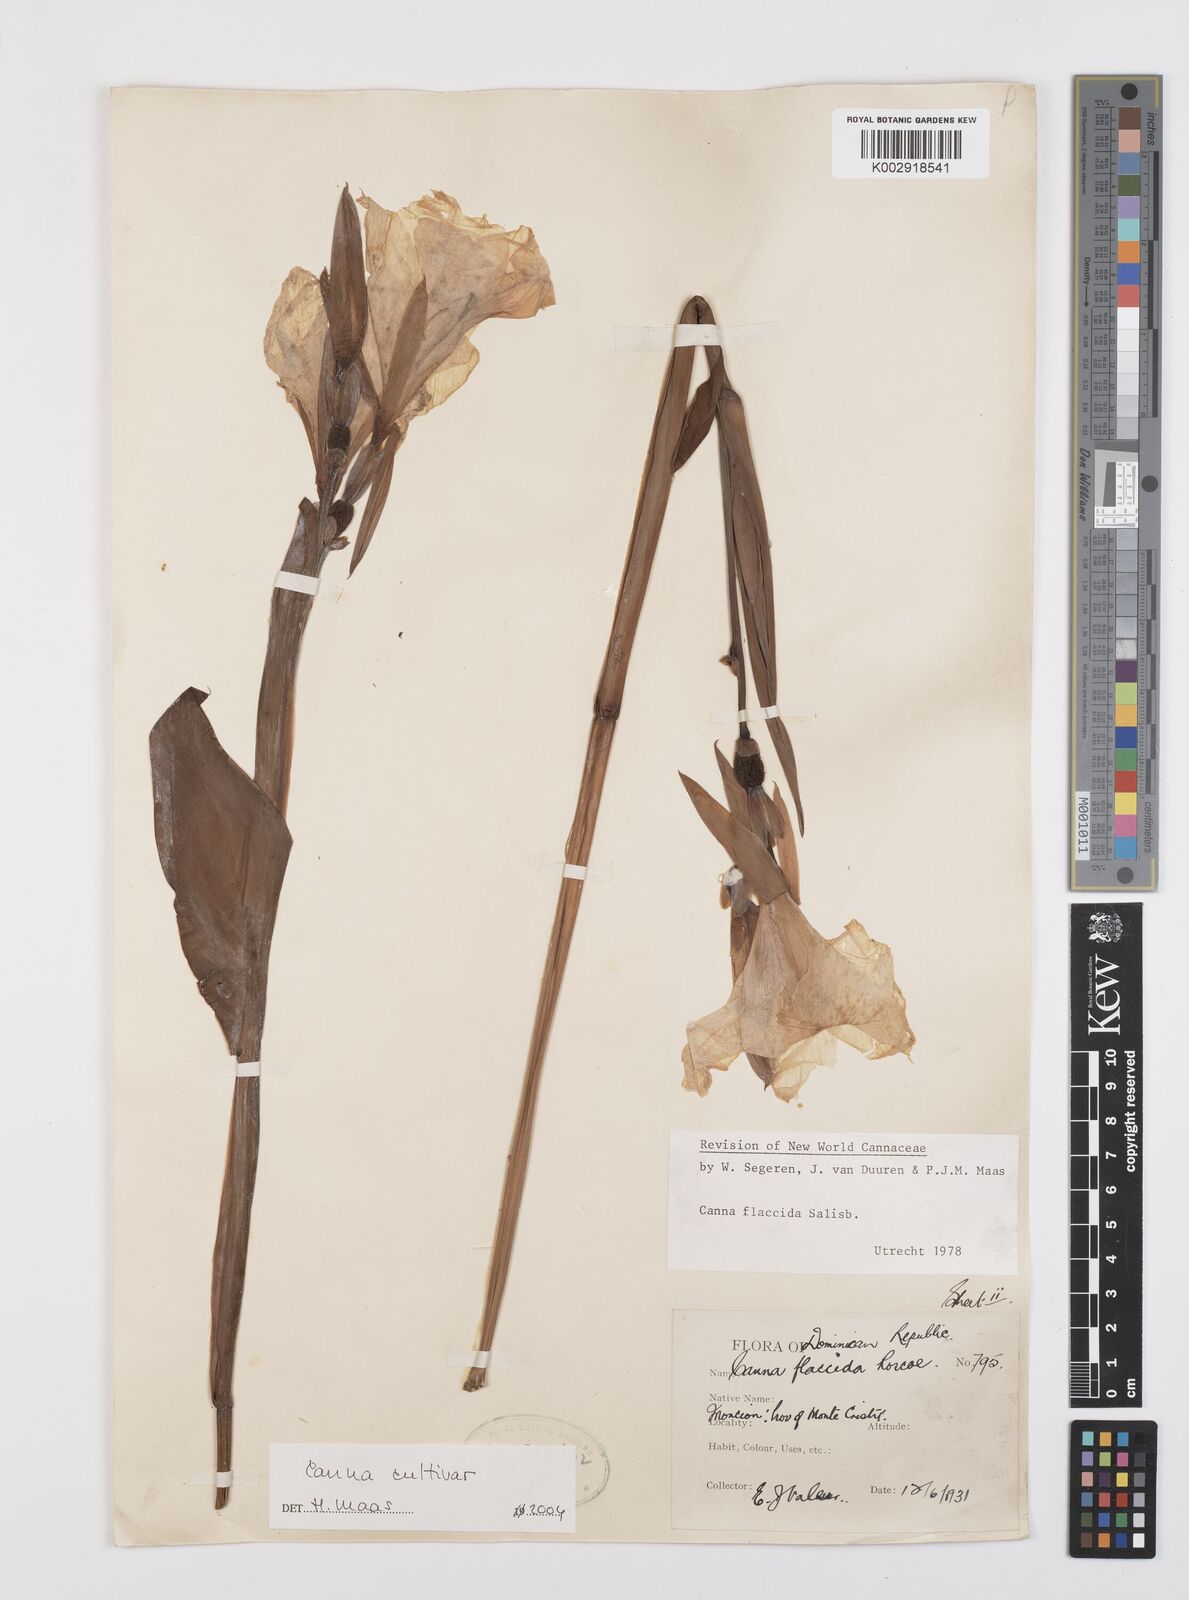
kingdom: Plantae
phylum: Tracheophyta
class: Liliopsida
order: Zingiberales
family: Cannaceae
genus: Canna
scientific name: Canna
